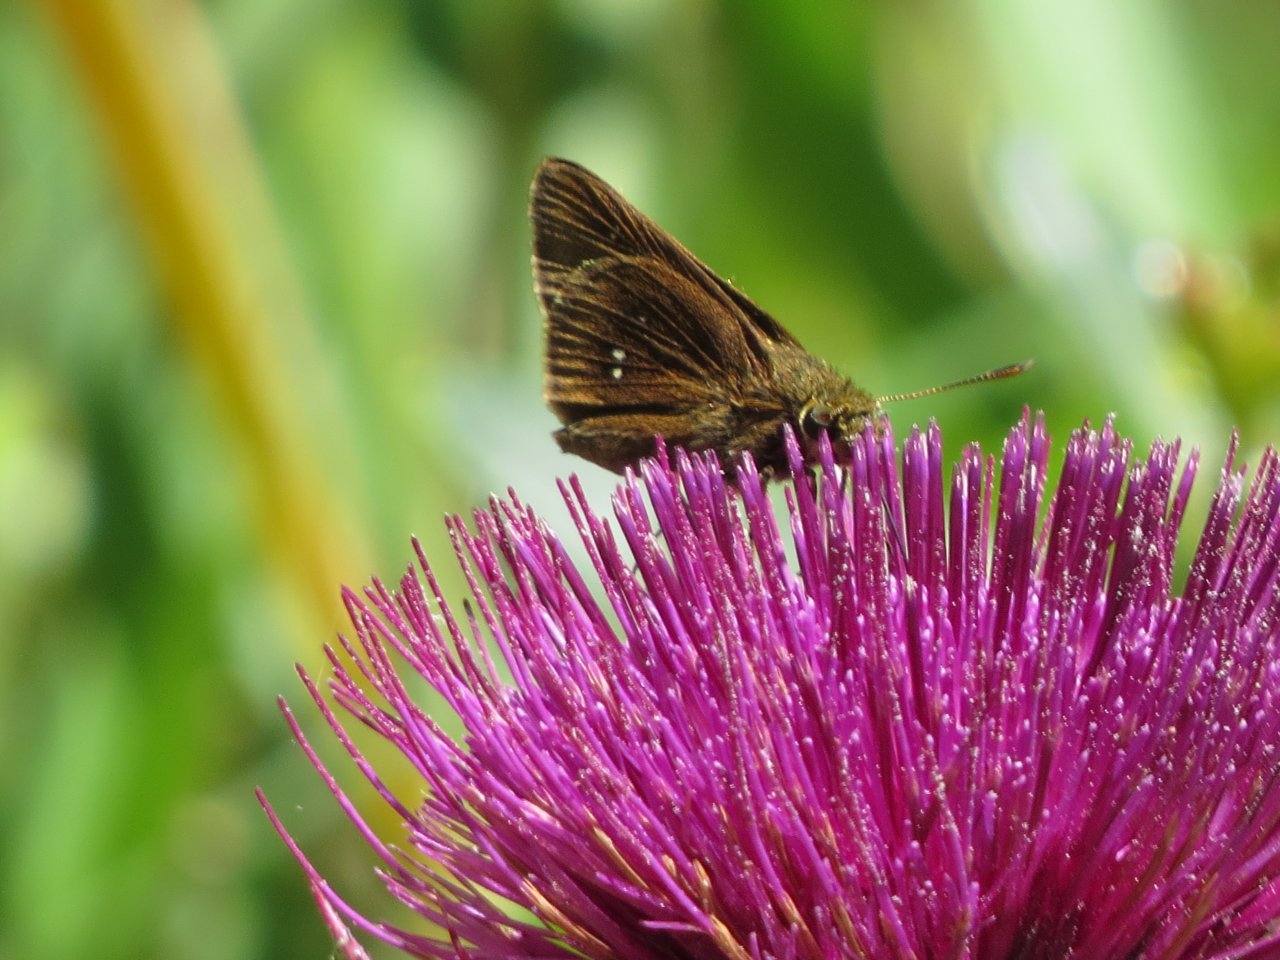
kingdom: Animalia
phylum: Arthropoda
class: Insecta
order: Lepidoptera
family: Hesperiidae
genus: Oligoria
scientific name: Oligoria maculata
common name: Twin-spot Skipper
